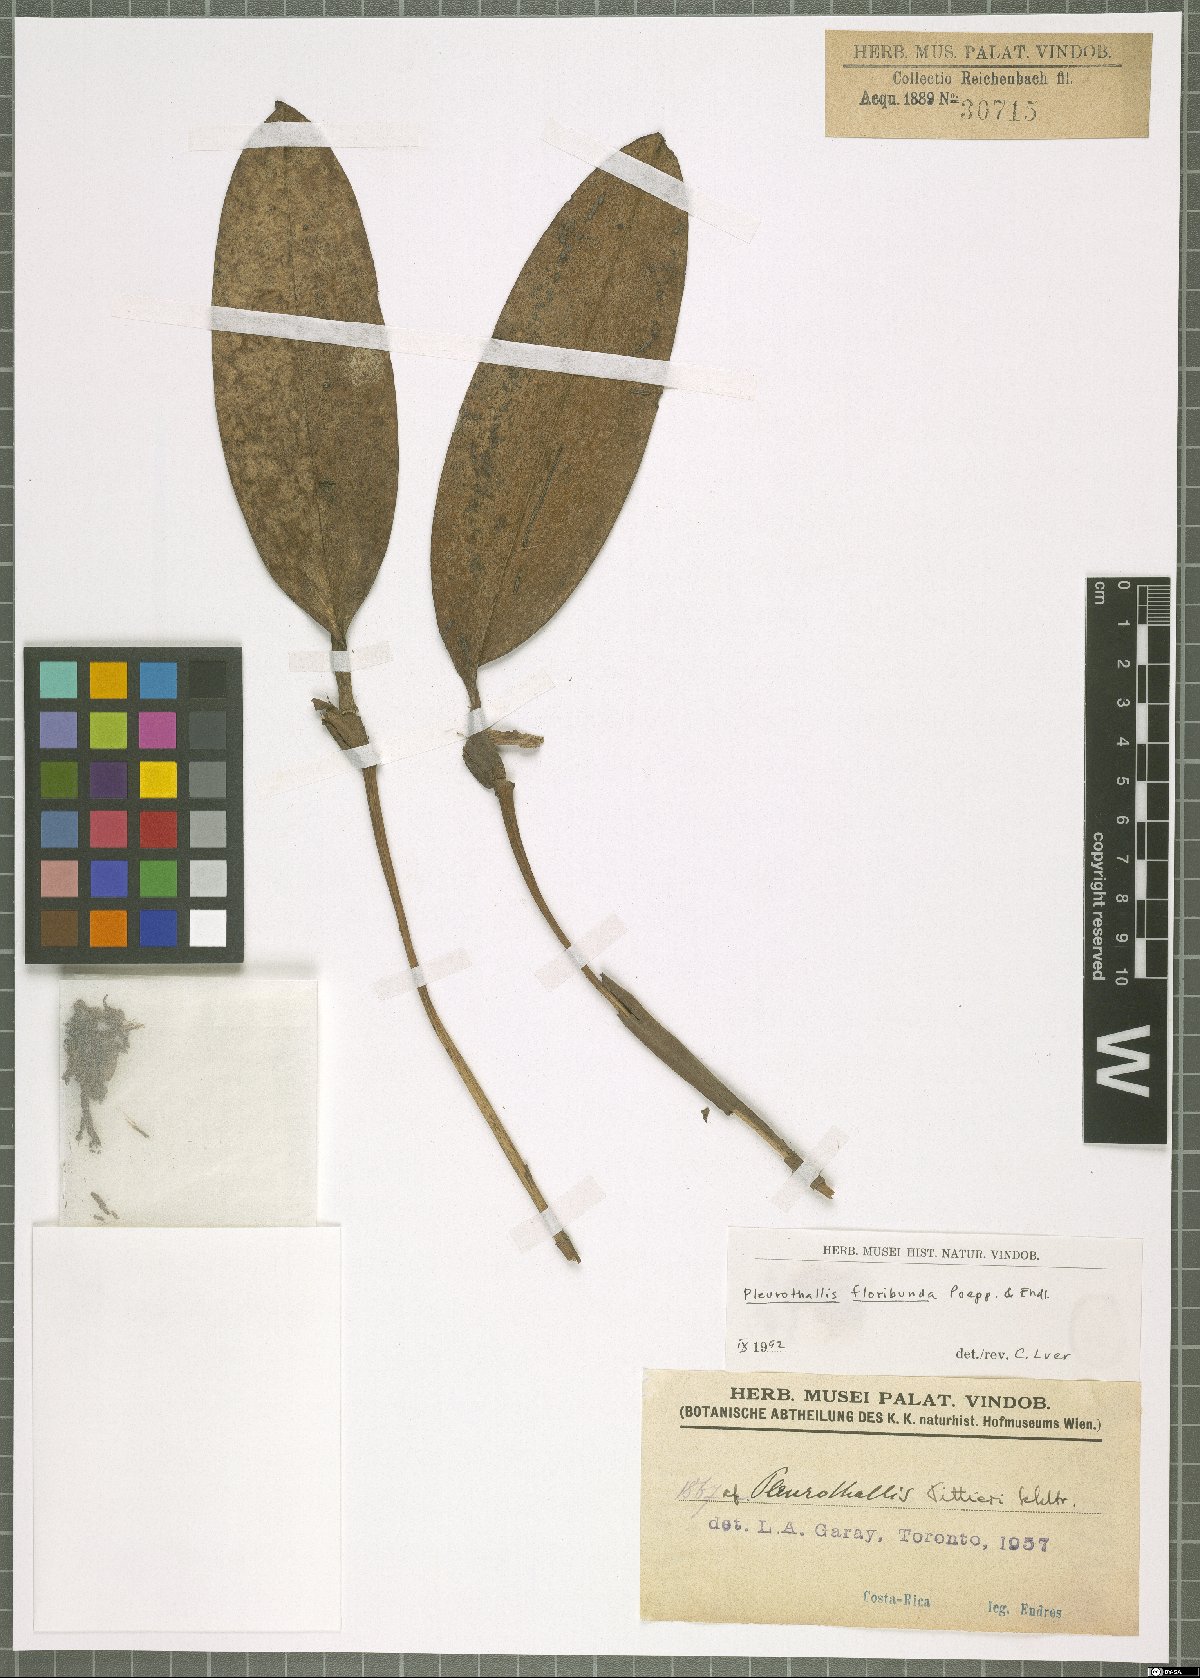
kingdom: Plantae
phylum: Tracheophyta
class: Liliopsida
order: Asparagales
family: Orchidaceae
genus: Stelis
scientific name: Stelis pittieri
